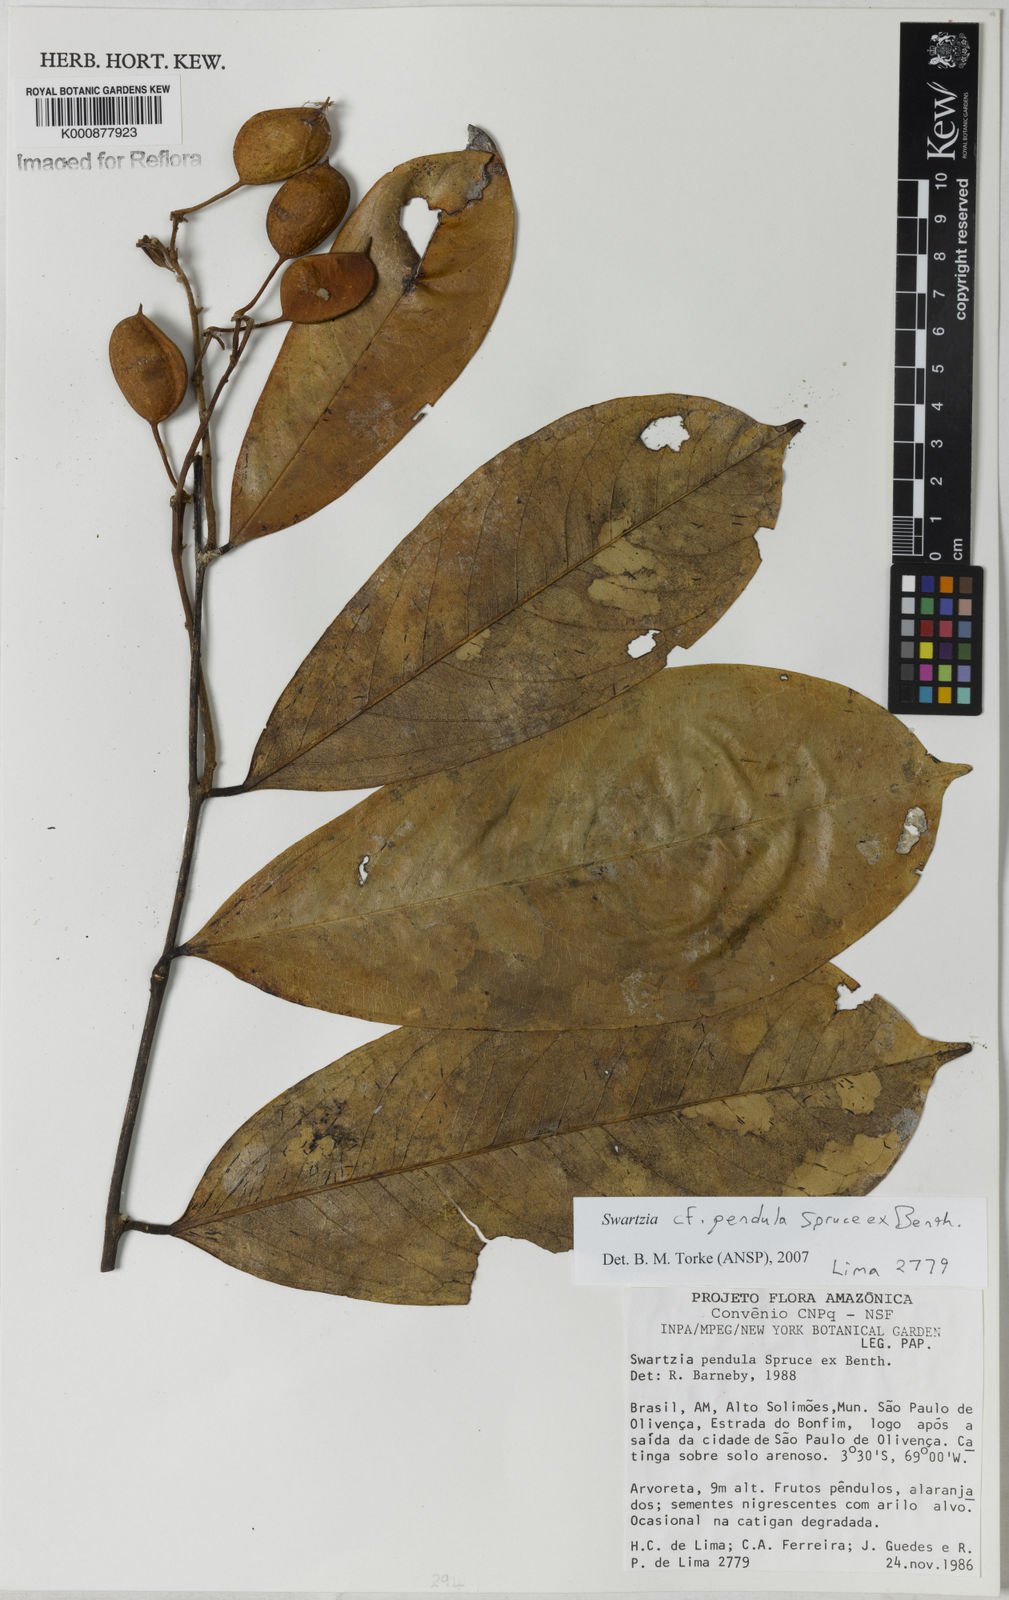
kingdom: Plantae
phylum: Tracheophyta
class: Magnoliopsida
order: Fabales
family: Fabaceae
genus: Swartzia
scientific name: Swartzia pendula
